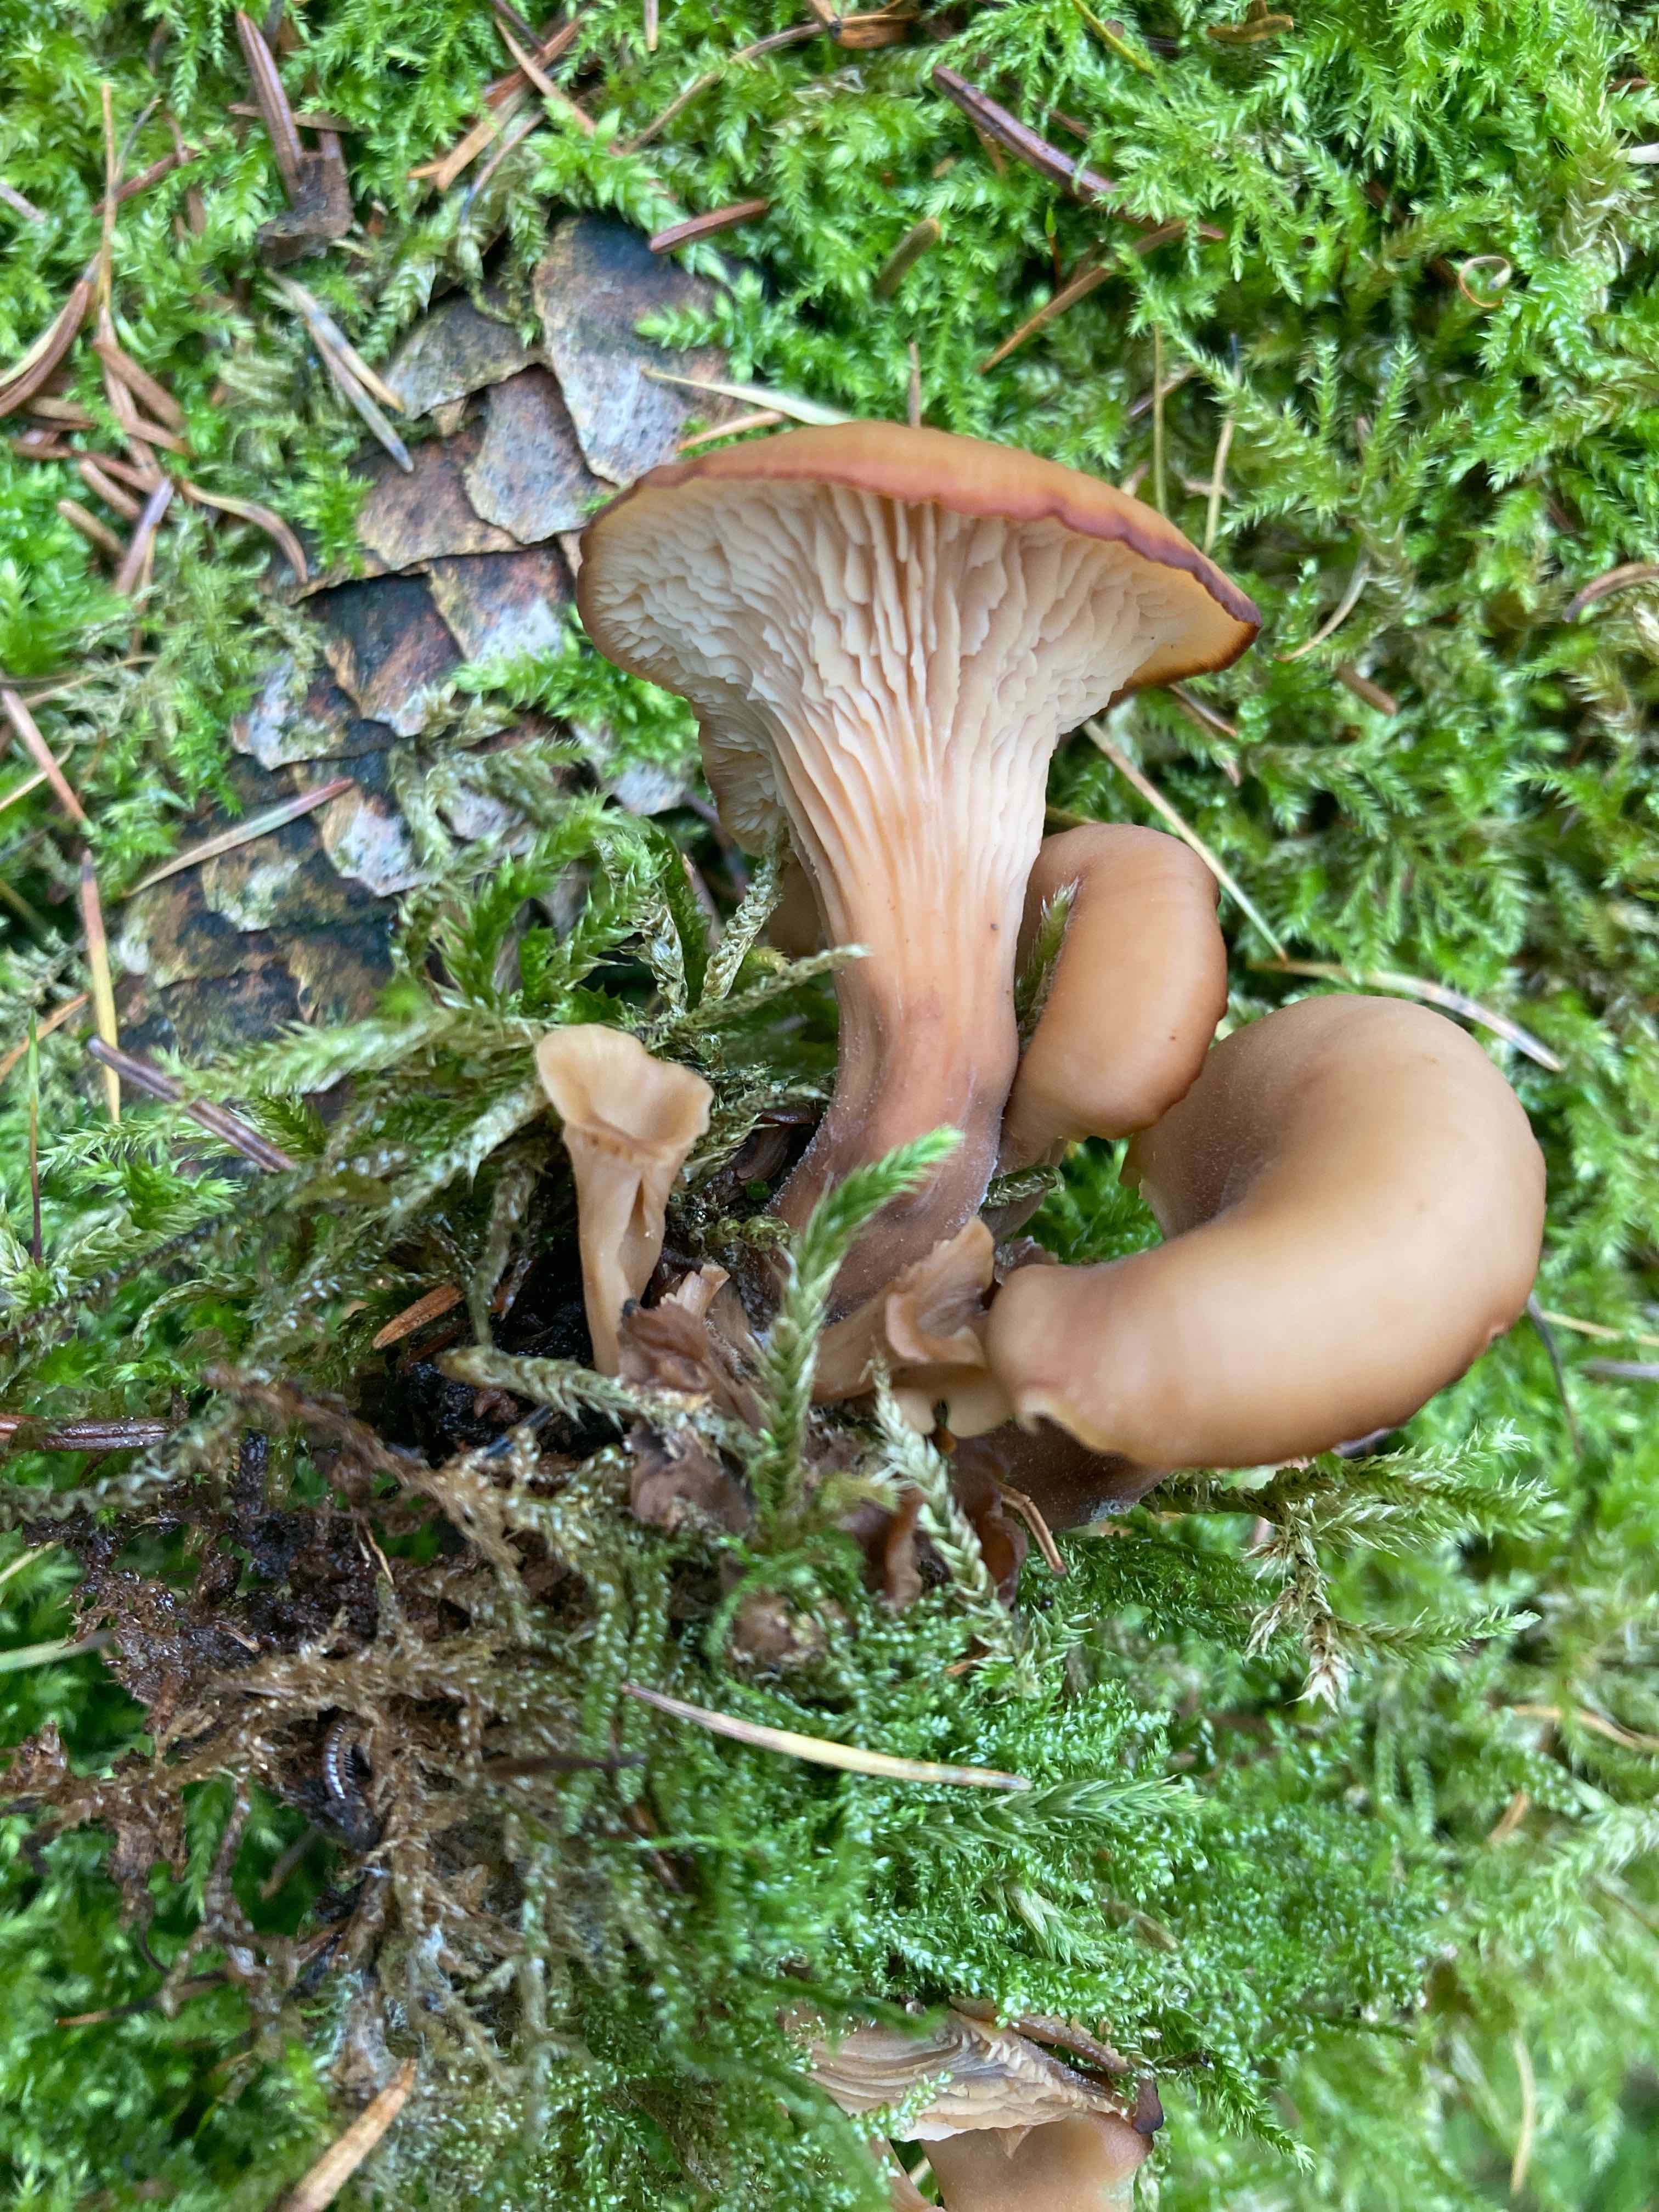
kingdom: Fungi
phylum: Basidiomycota
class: Agaricomycetes
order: Russulales
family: Auriscalpiaceae
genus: Lentinellus
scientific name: Lentinellus cochleatus
